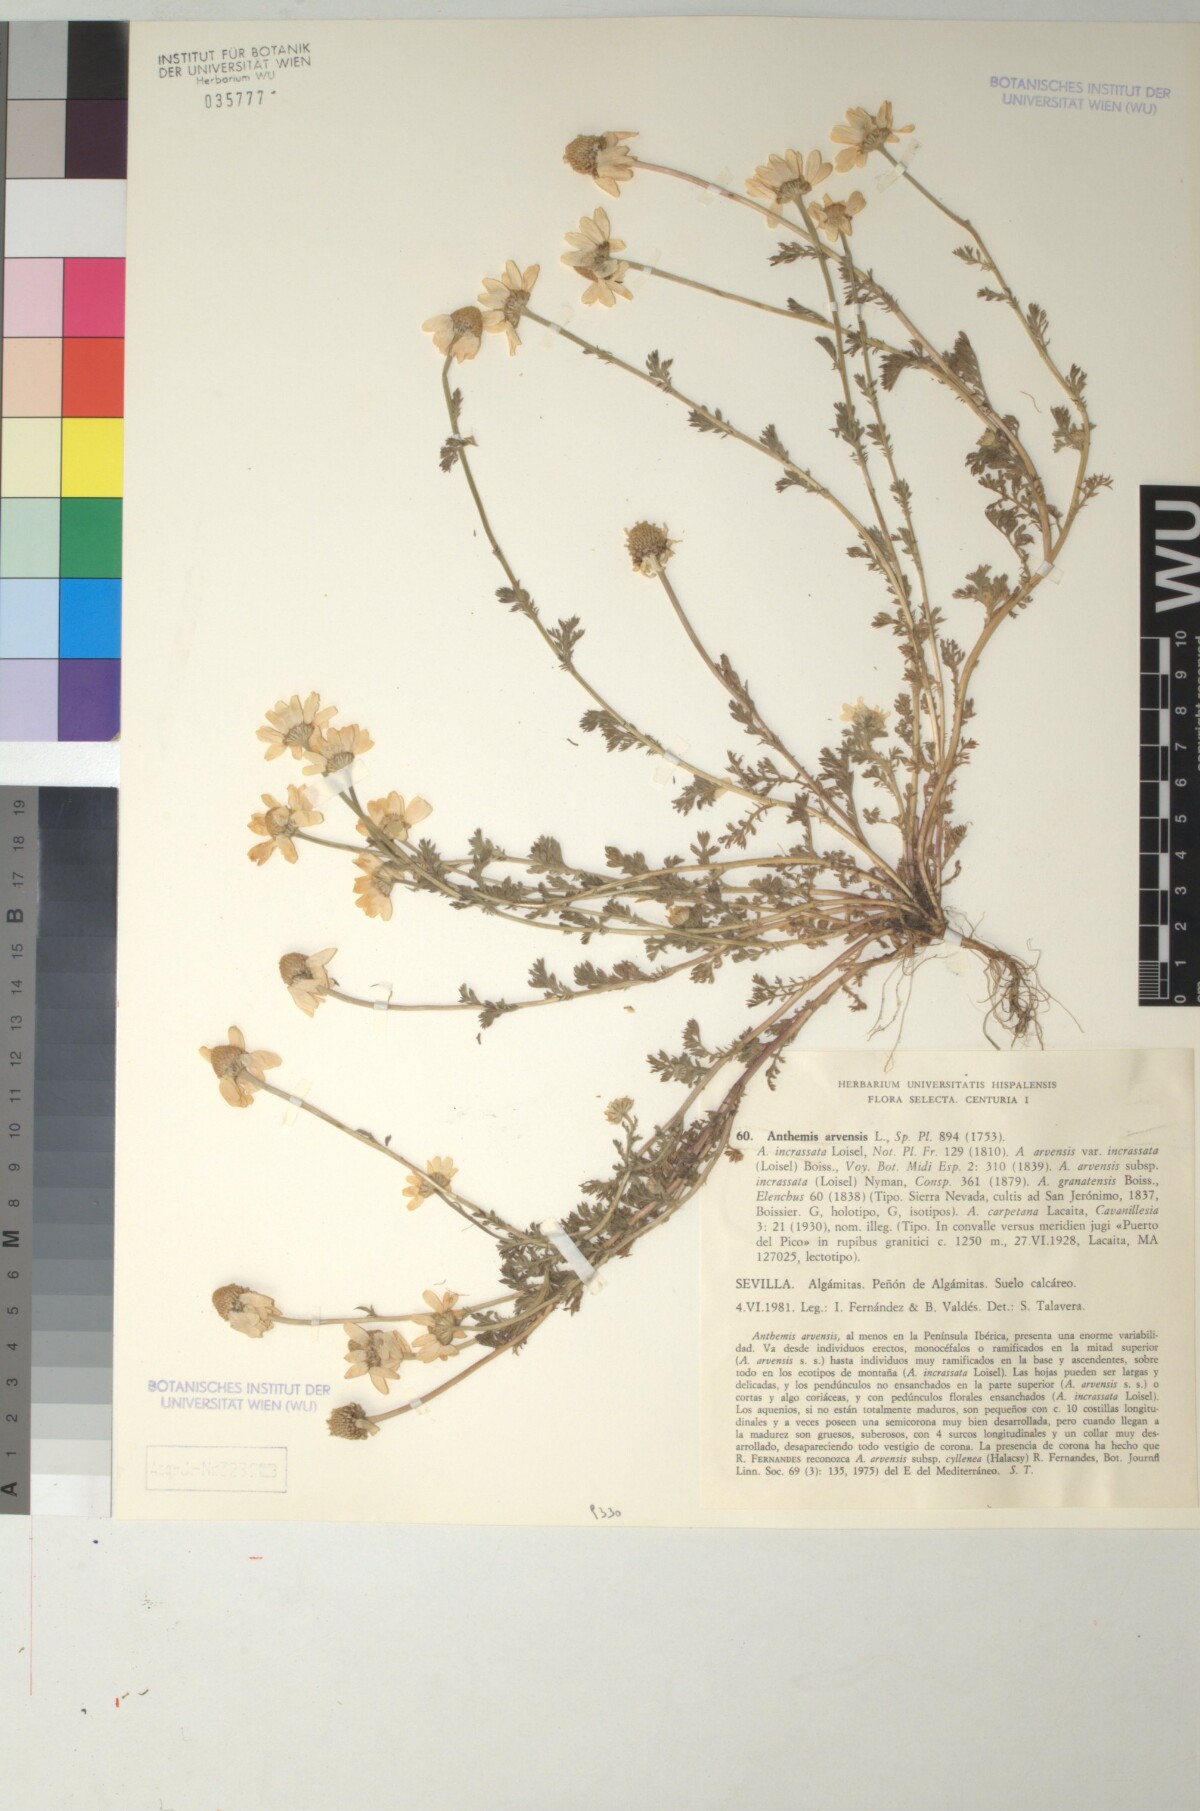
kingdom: Plantae
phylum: Tracheophyta
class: Magnoliopsida
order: Asterales
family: Asteraceae
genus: Anthemis
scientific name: Anthemis arvensis
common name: Corn chamomile
